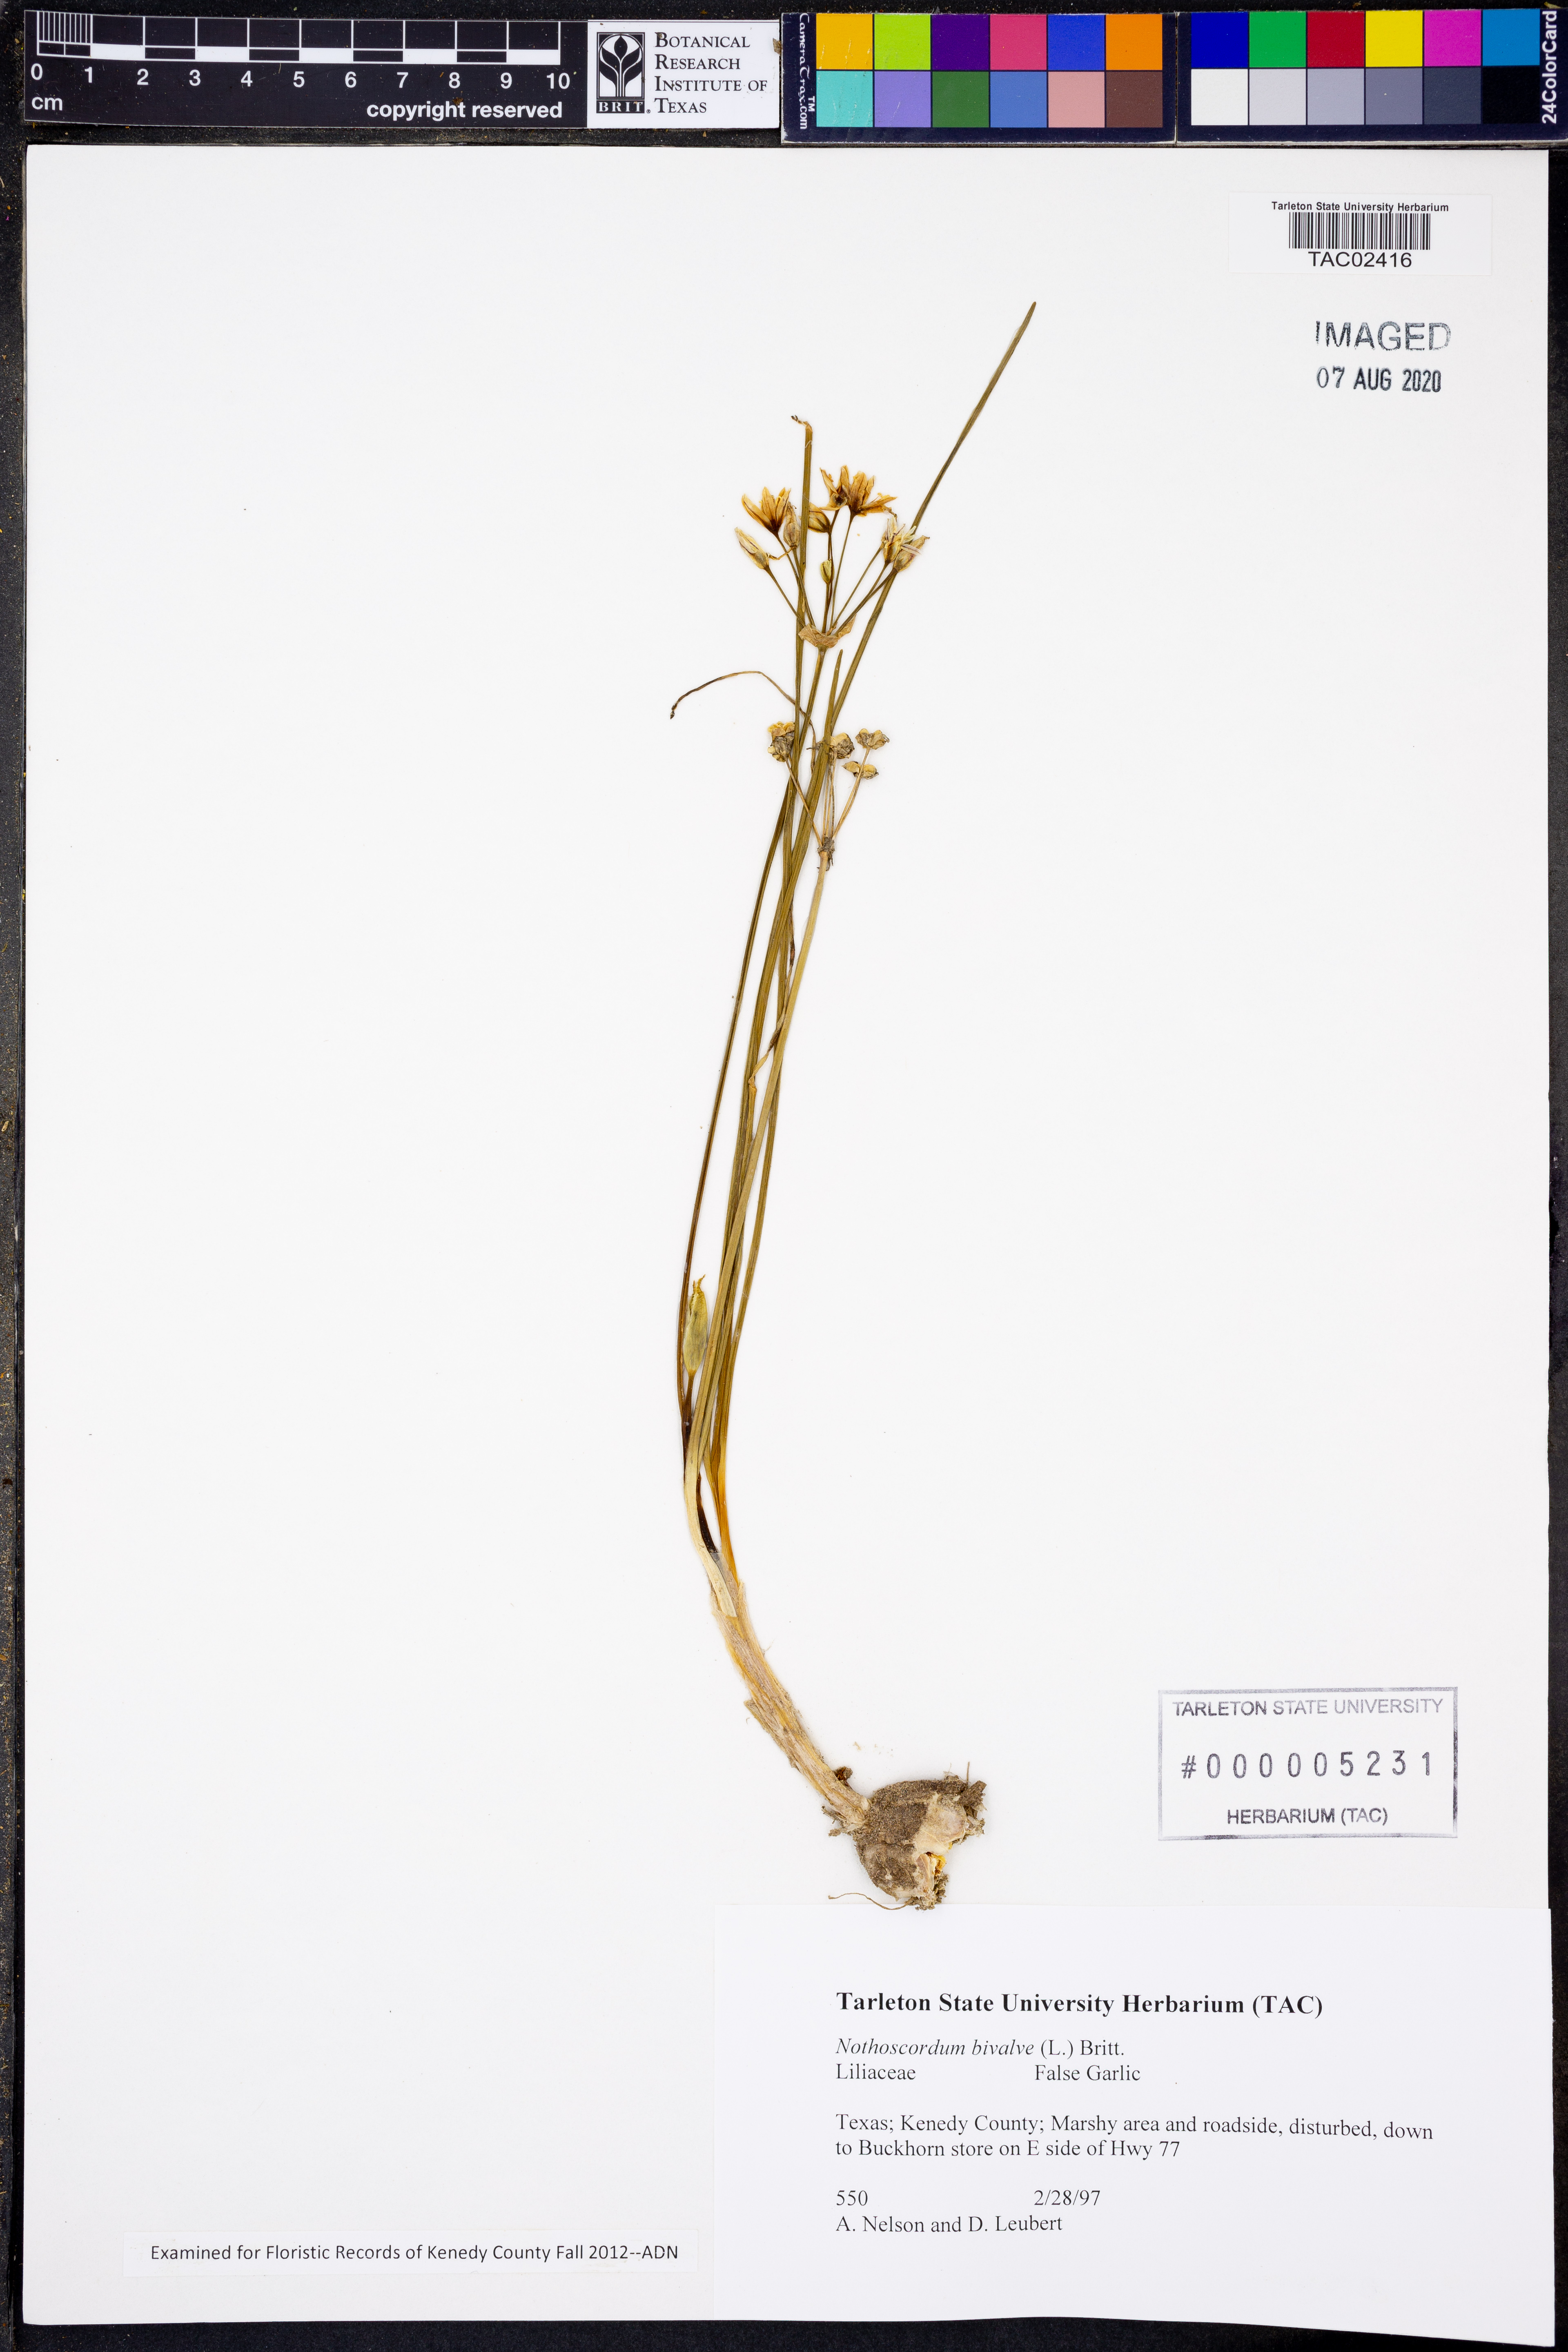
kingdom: Plantae
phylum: Tracheophyta
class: Liliopsida
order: Asparagales
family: Amaryllidaceae
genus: Nothoscordum
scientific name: Nothoscordum bivalve
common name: Crow-poison
